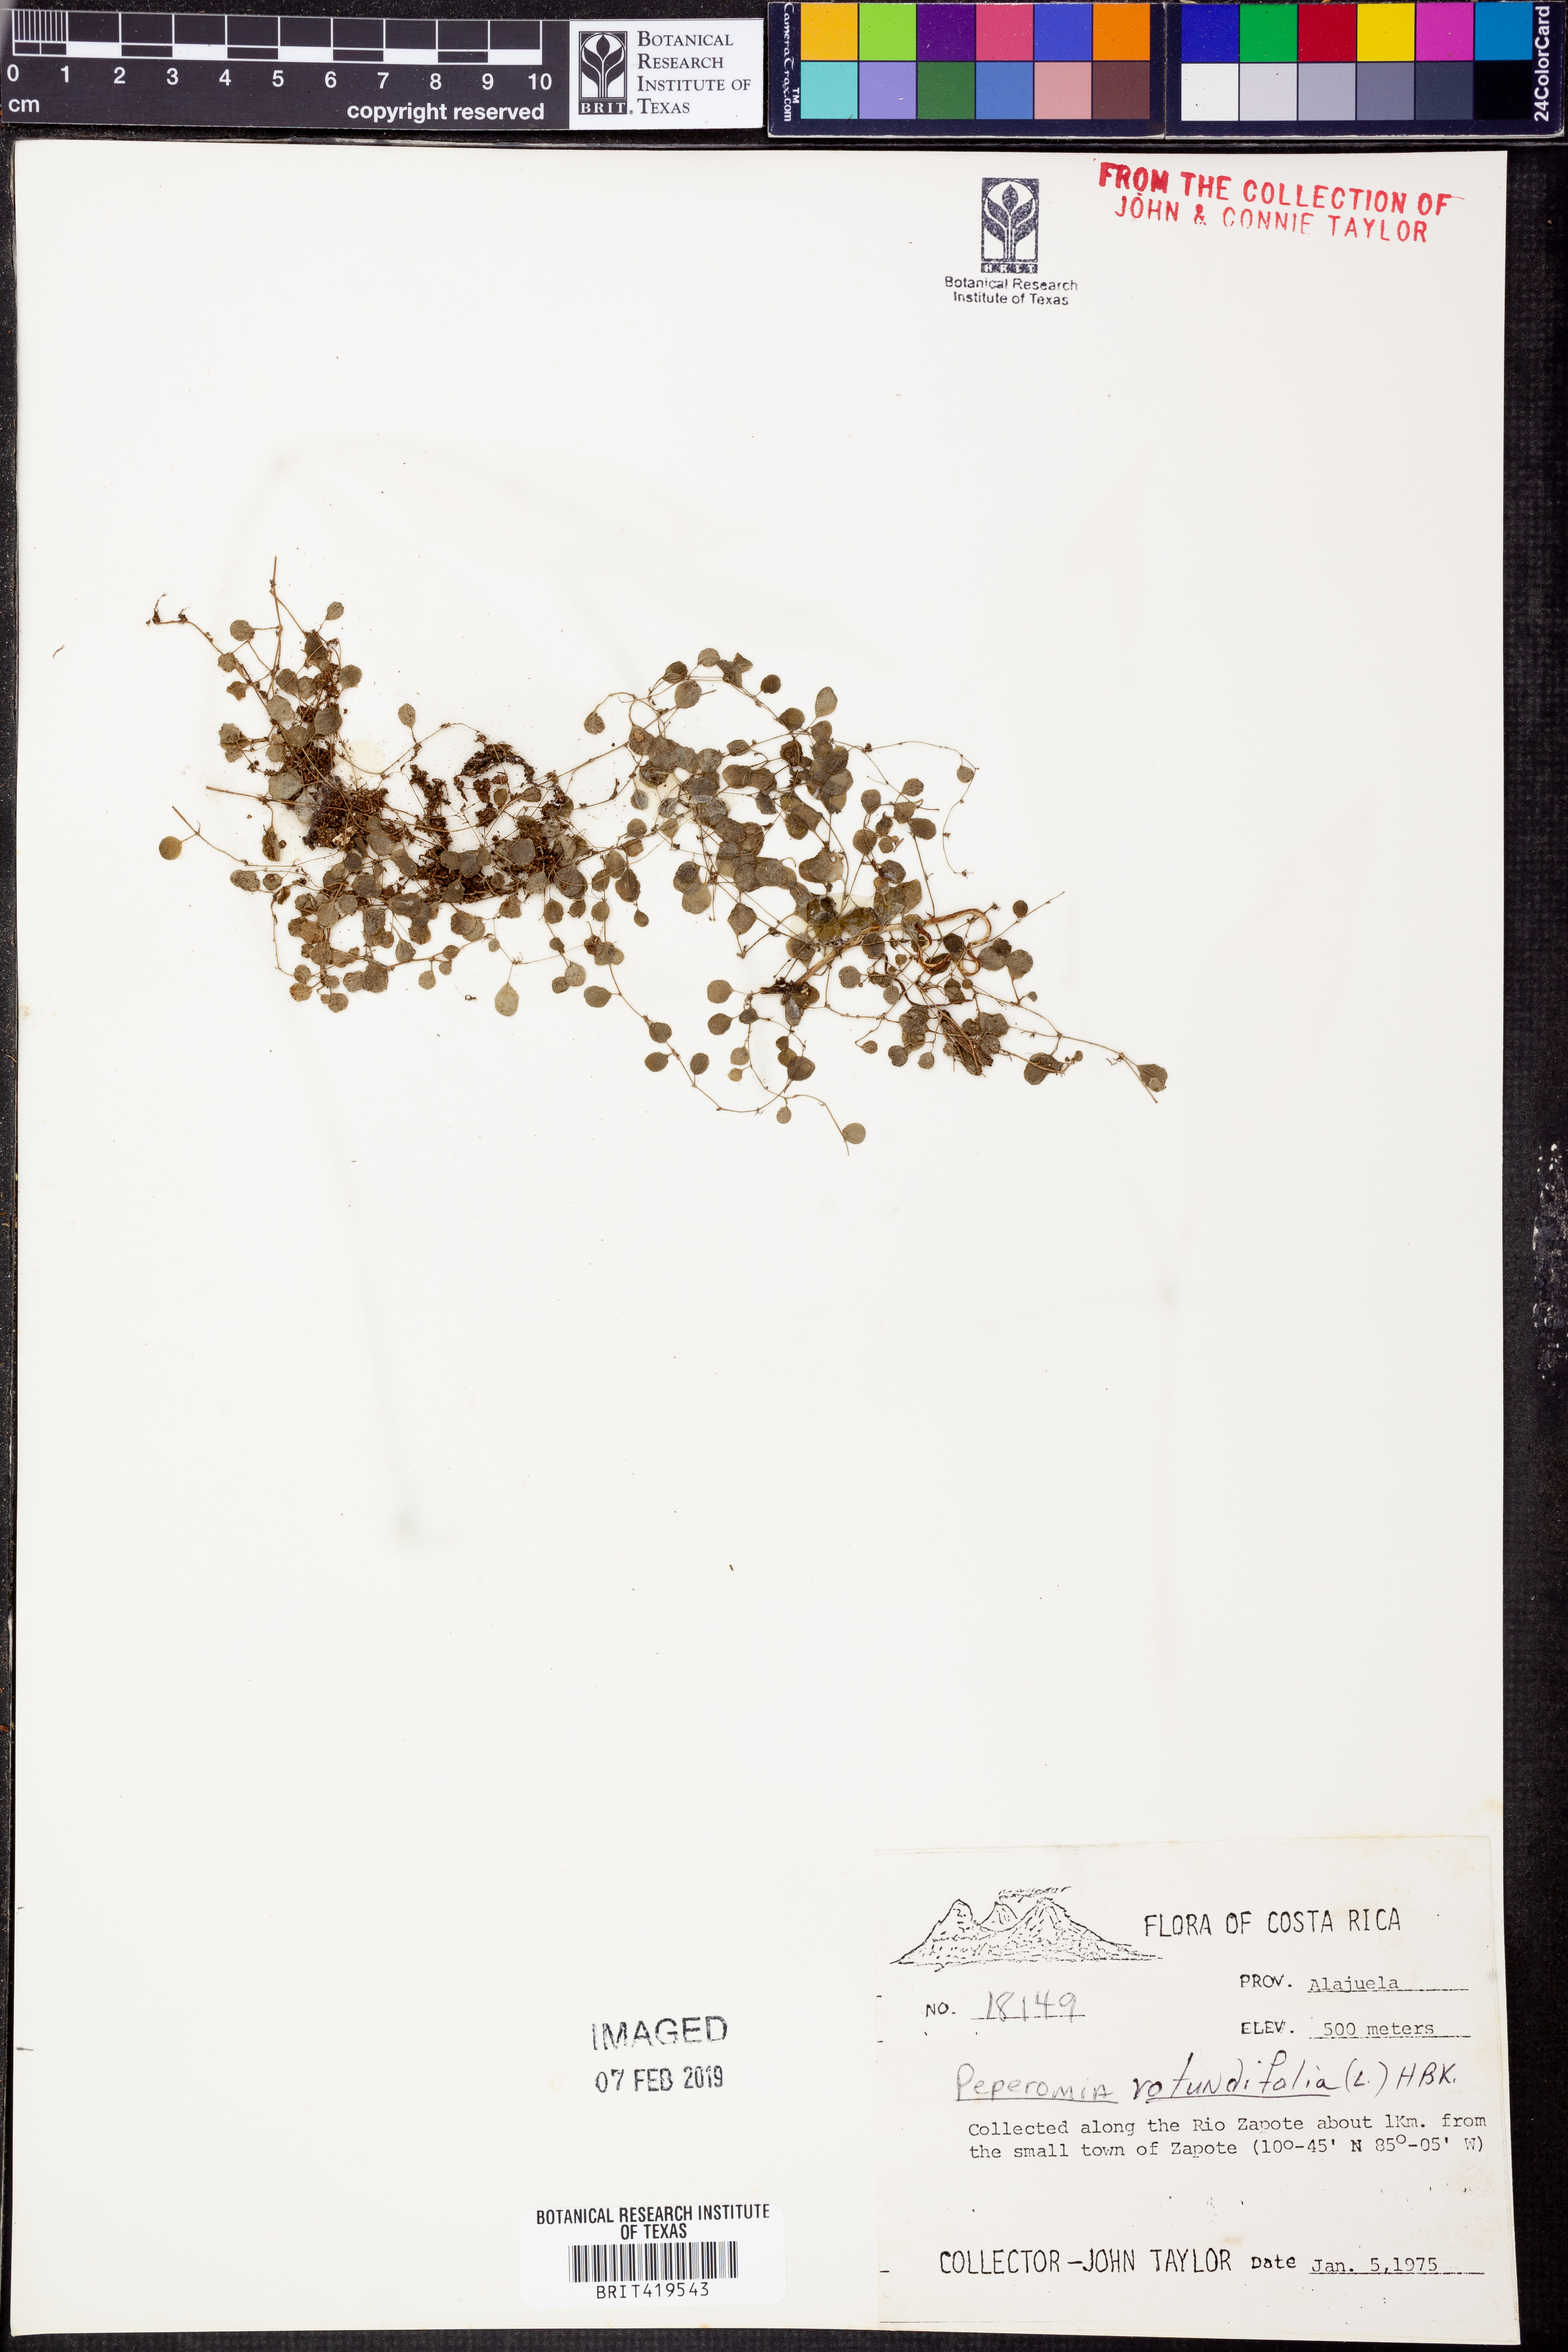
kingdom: Plantae
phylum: Tracheophyta
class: Magnoliopsida
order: Piperales
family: Piperaceae
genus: Peperomia
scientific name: Peperomia rotundifolia
